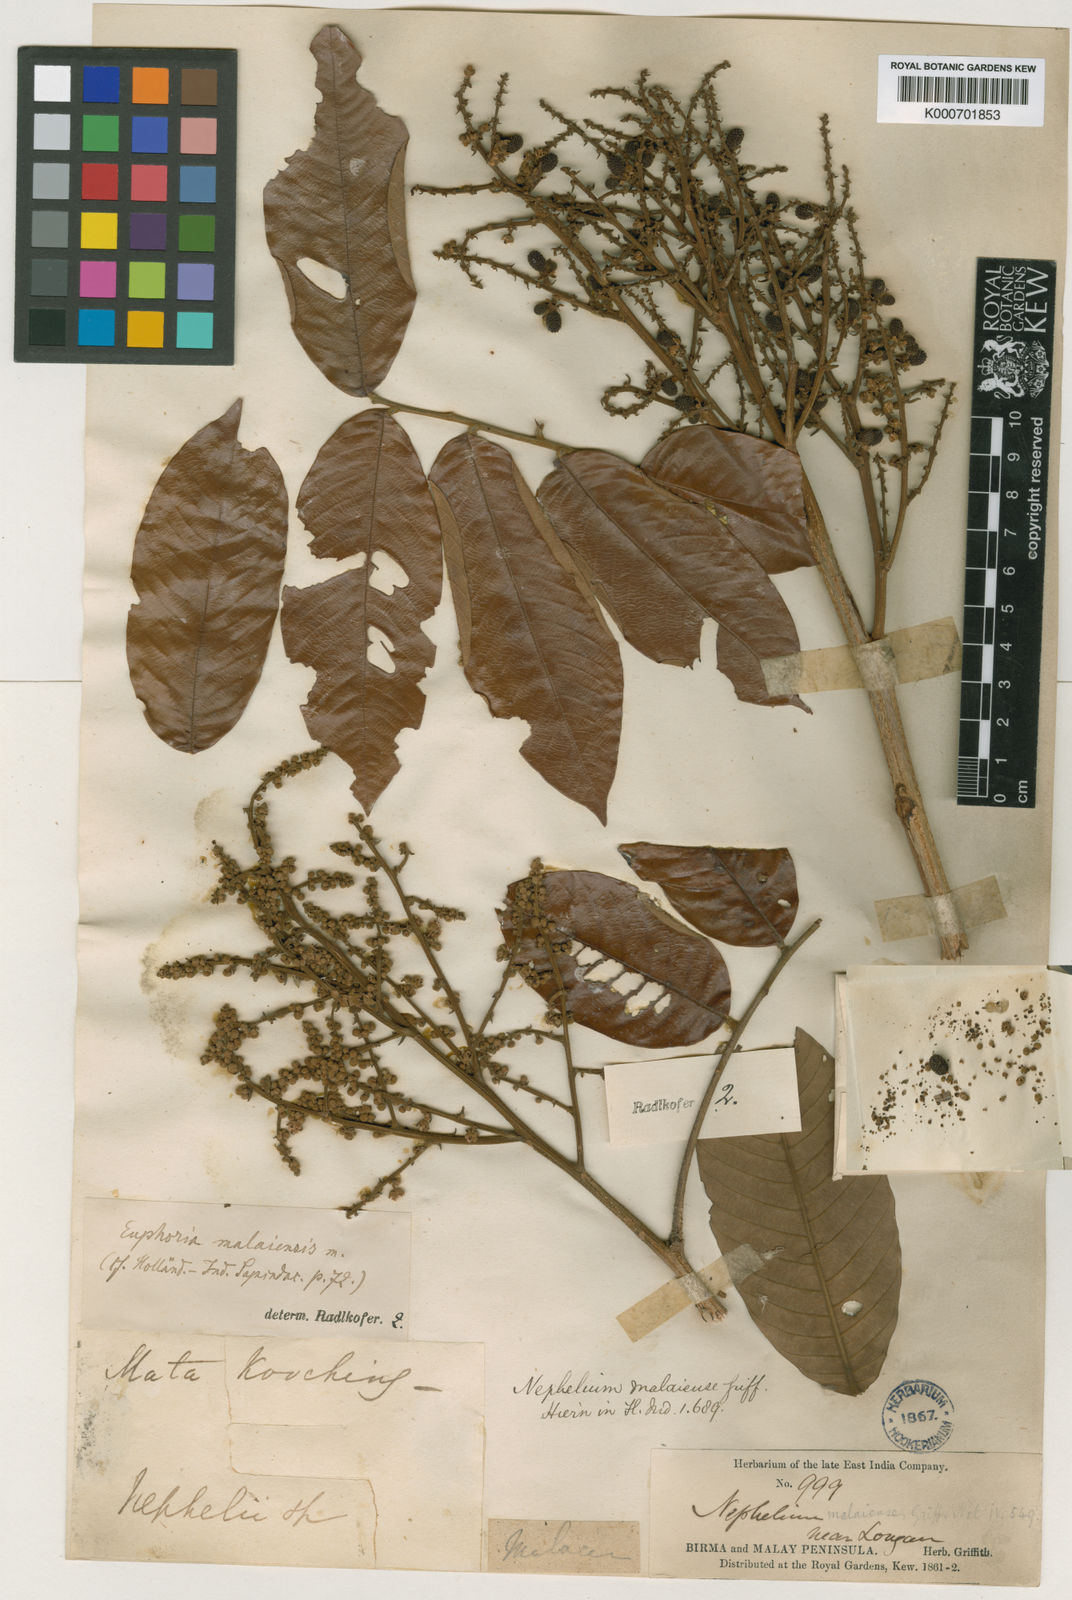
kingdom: Plantae
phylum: Tracheophyta
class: Magnoliopsida
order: Sapindales
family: Sapindaceae
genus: Dimocarpus
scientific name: Dimocarpus malesianus
